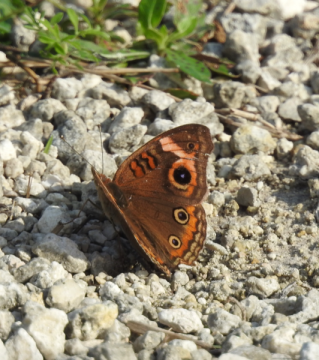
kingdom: Animalia
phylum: Arthropoda
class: Insecta
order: Lepidoptera
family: Nymphalidae
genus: Junonia
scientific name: Junonia evarete
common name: Mangrove Buckeye
